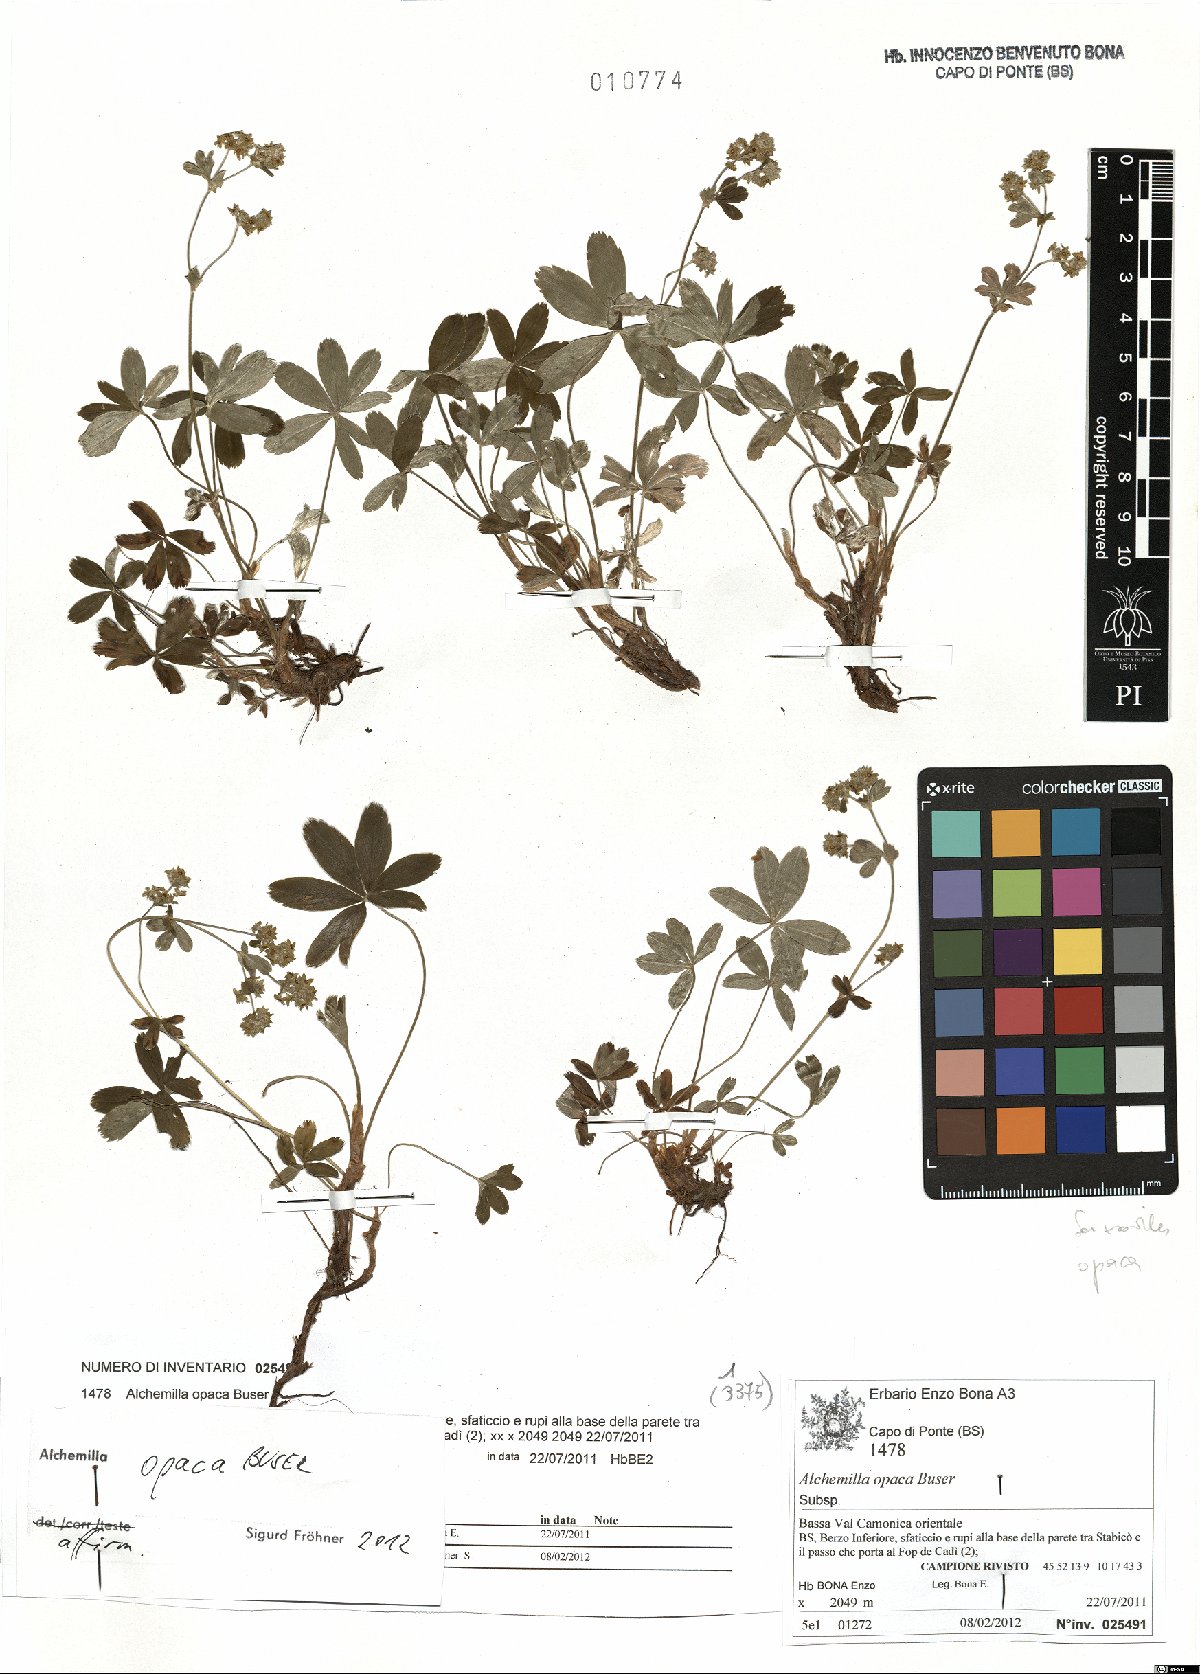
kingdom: Plantae
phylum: Tracheophyta
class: Magnoliopsida
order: Rosales
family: Rosaceae
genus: Alchemilla
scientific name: Alchemilla opaca
